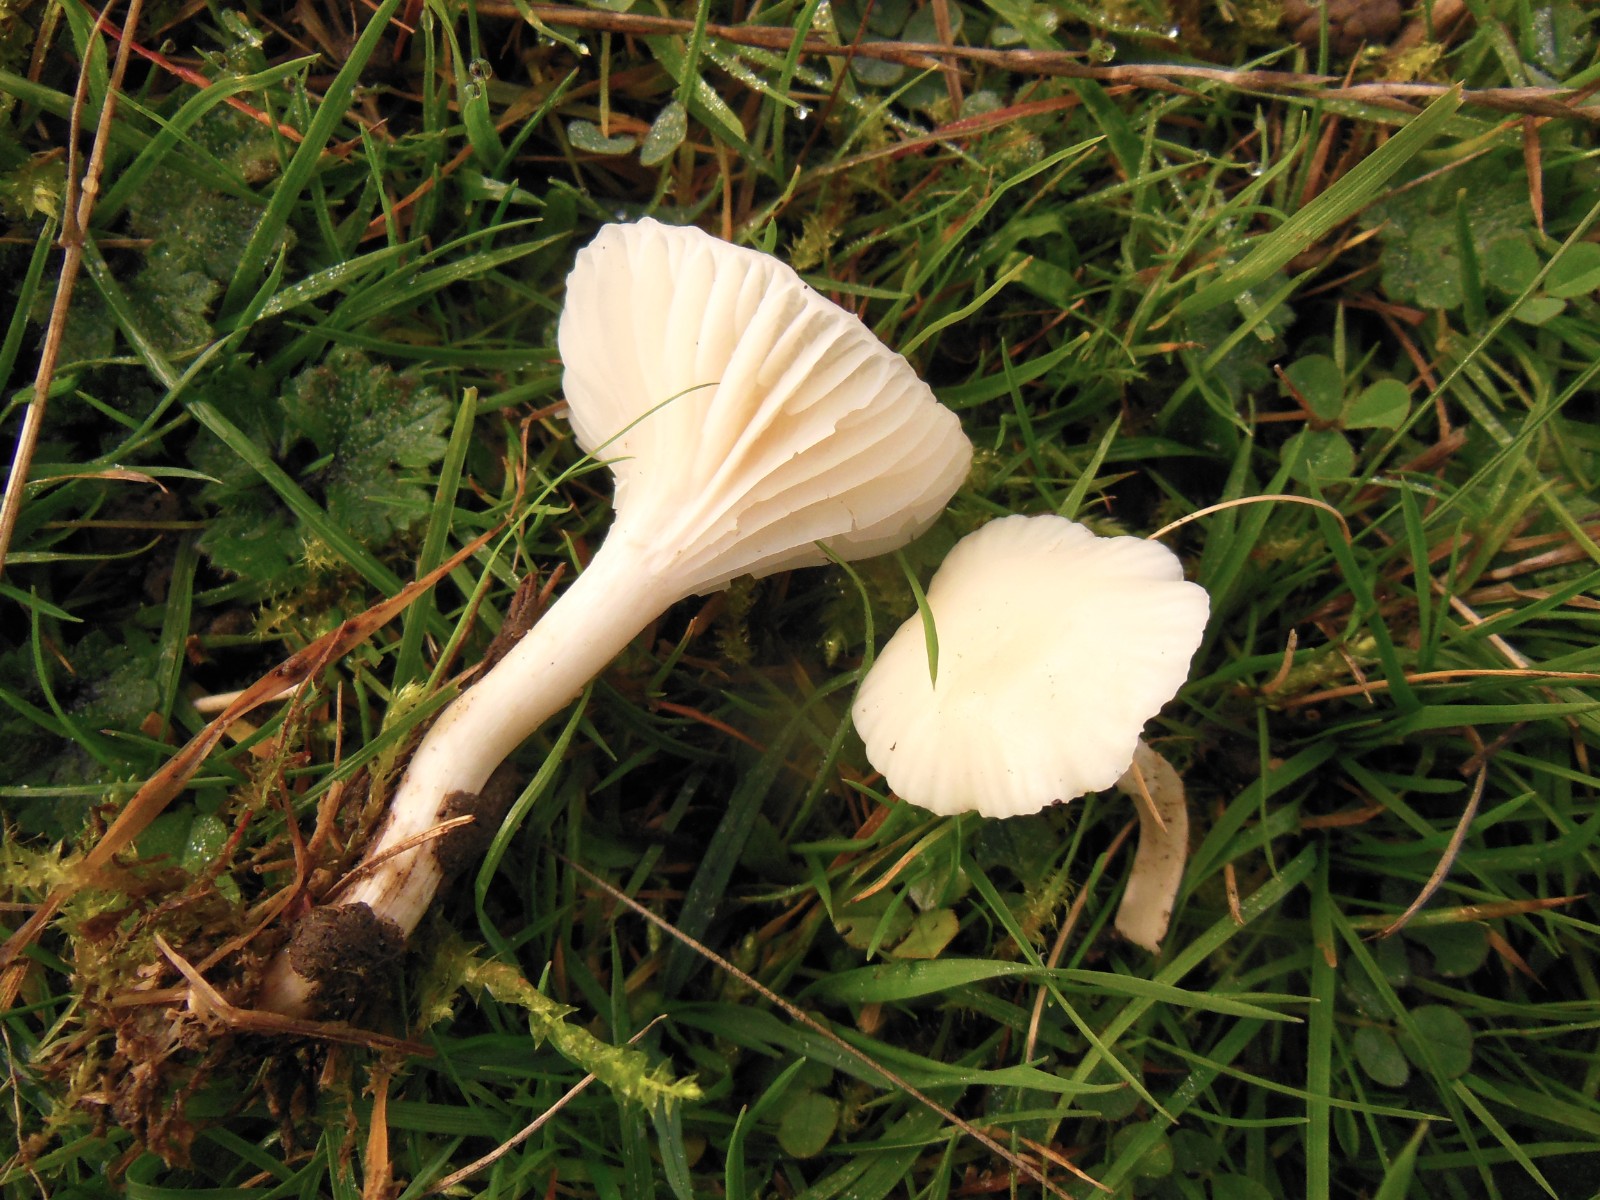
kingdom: Fungi
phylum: Basidiomycota
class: Agaricomycetes
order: Agaricales
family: Hygrophoraceae
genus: Cuphophyllus
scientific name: Cuphophyllus virgineus
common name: snehvid vokshat
